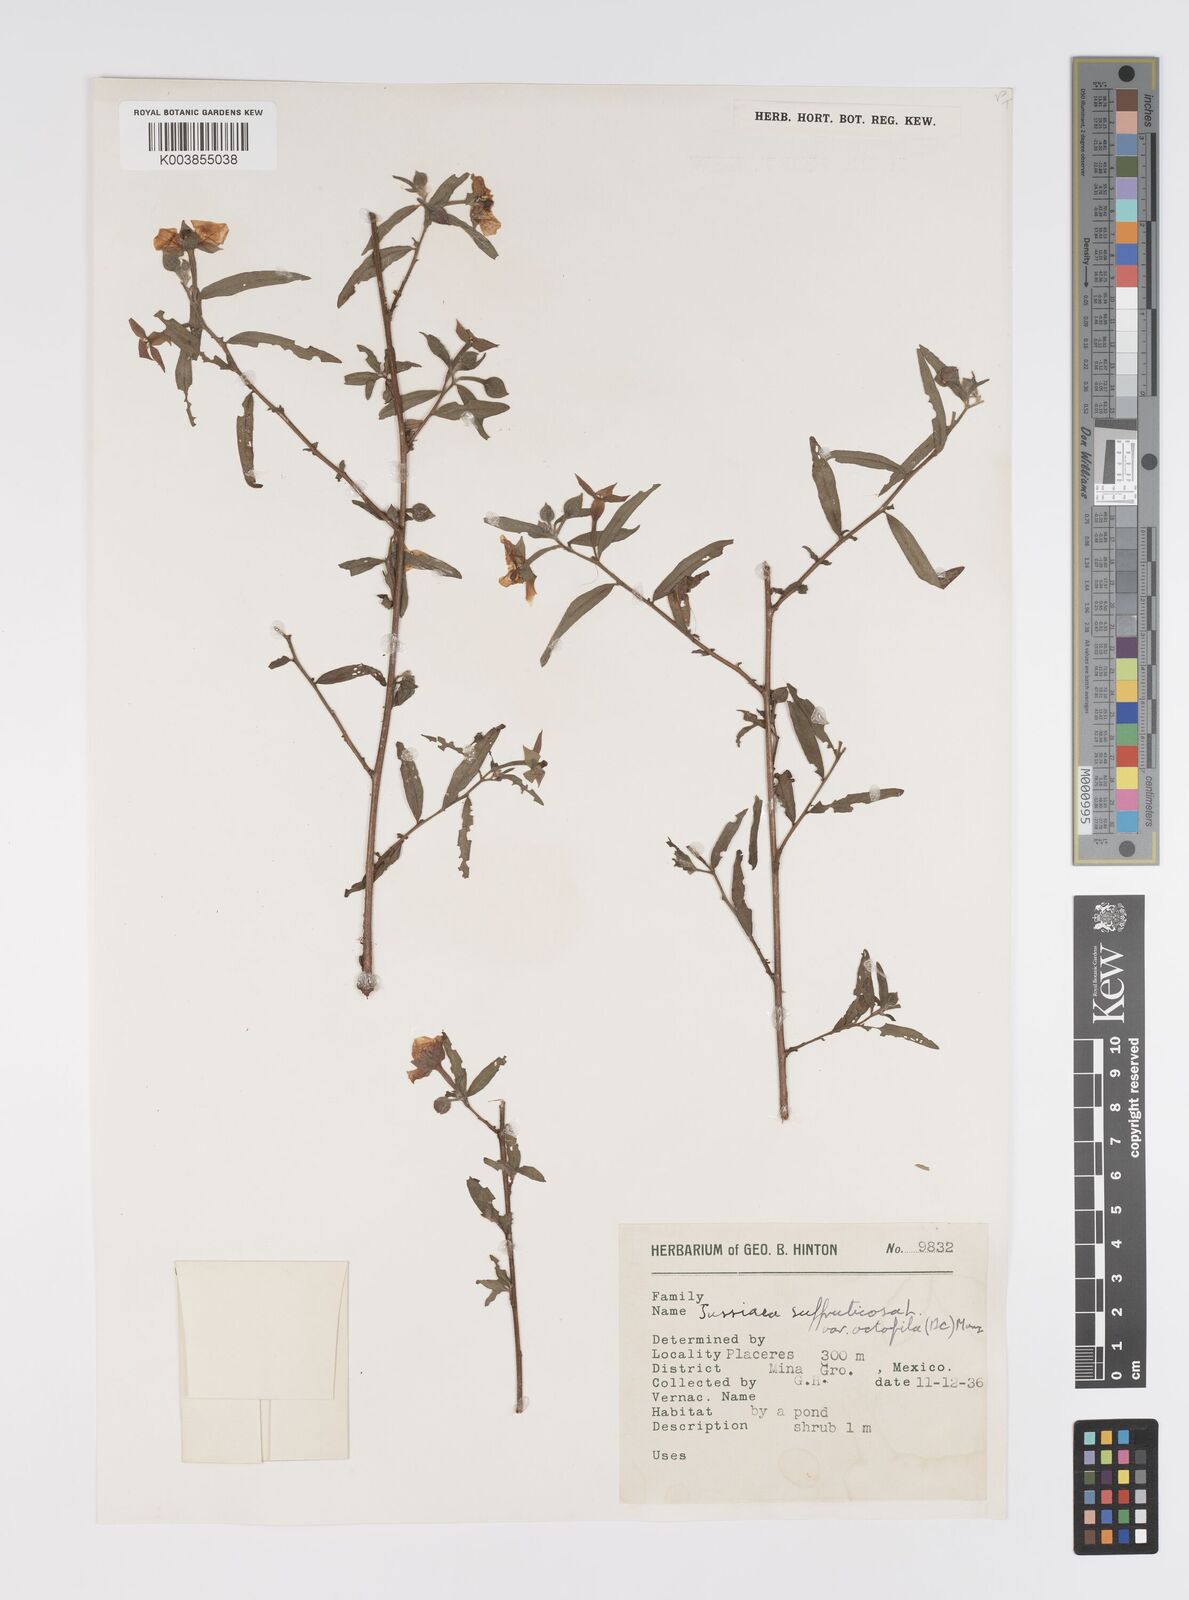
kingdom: Plantae
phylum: Tracheophyta
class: Magnoliopsida
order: Myrtales
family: Onagraceae
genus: Ludwigia
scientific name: Ludwigia octovalvis
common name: Water-primrose
